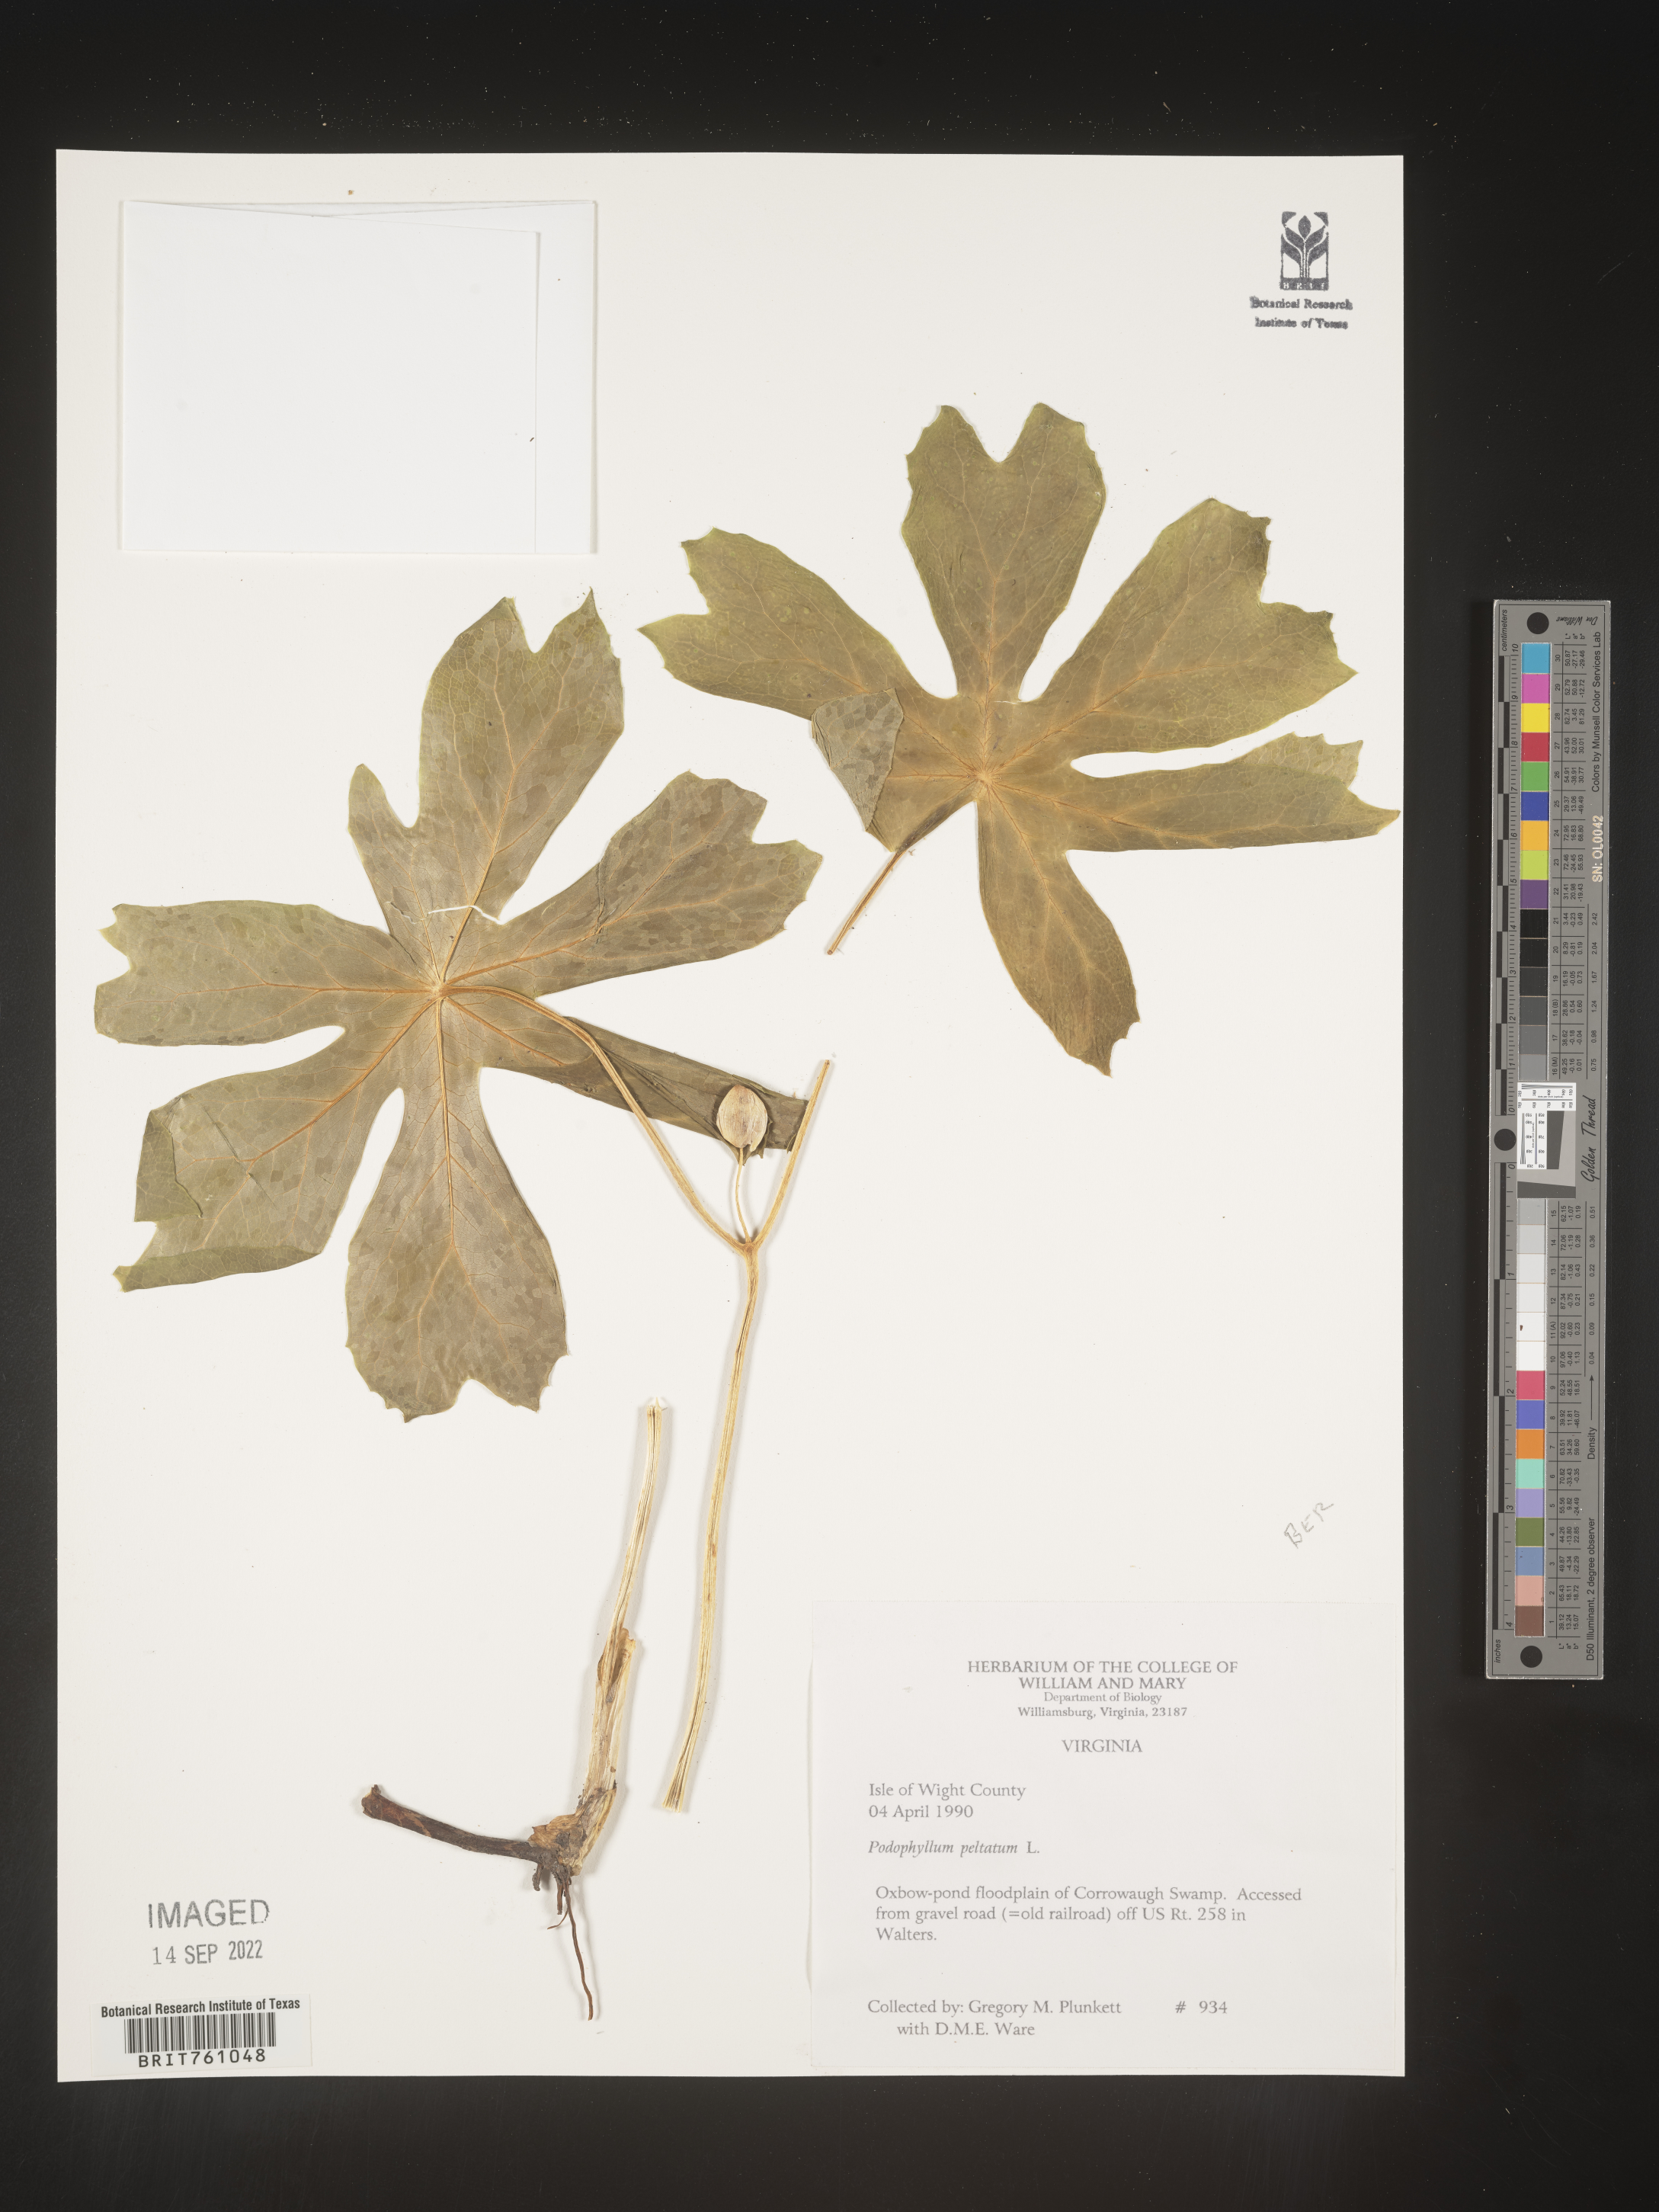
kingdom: Plantae
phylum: Tracheophyta
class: Magnoliopsida
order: Ranunculales
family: Berberidaceae
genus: Podophyllum
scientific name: Podophyllum peltatum
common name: Wild mandrake
